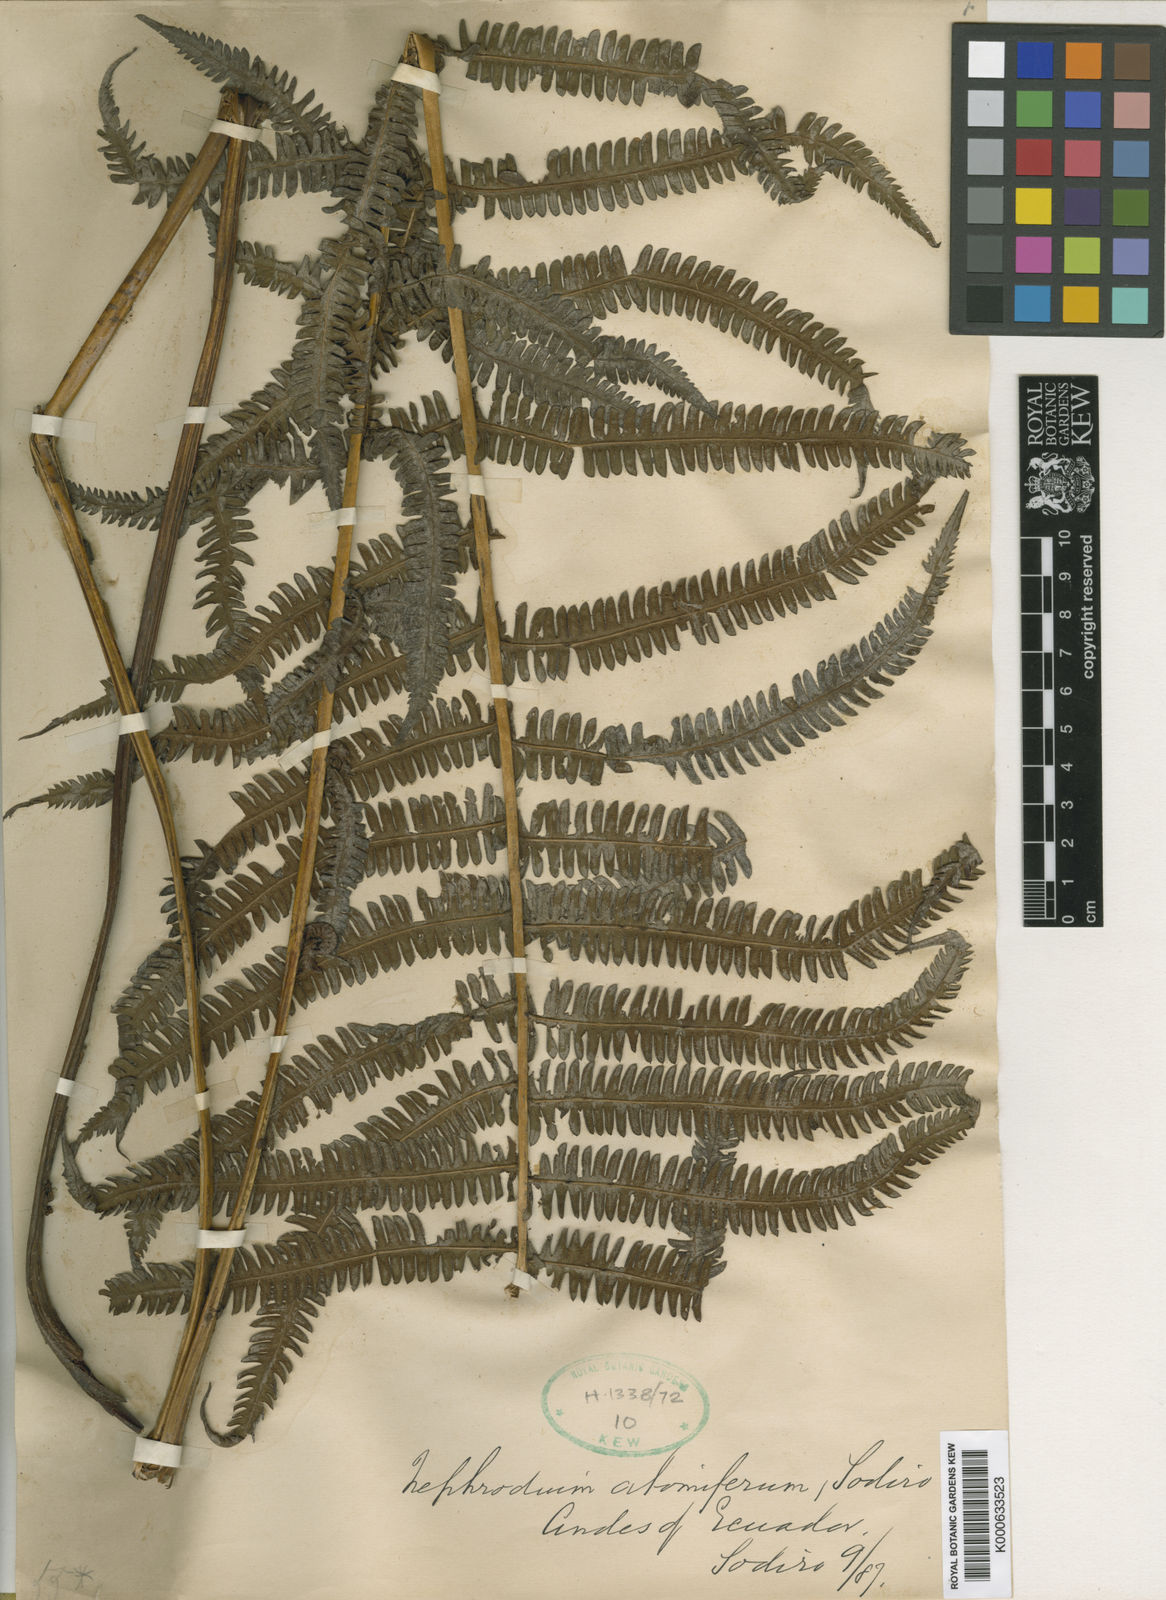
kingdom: Plantae
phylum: Tracheophyta
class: Polypodiopsida
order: Polypodiales
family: Thelypteridaceae
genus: Amauropelta
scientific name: Amauropelta
